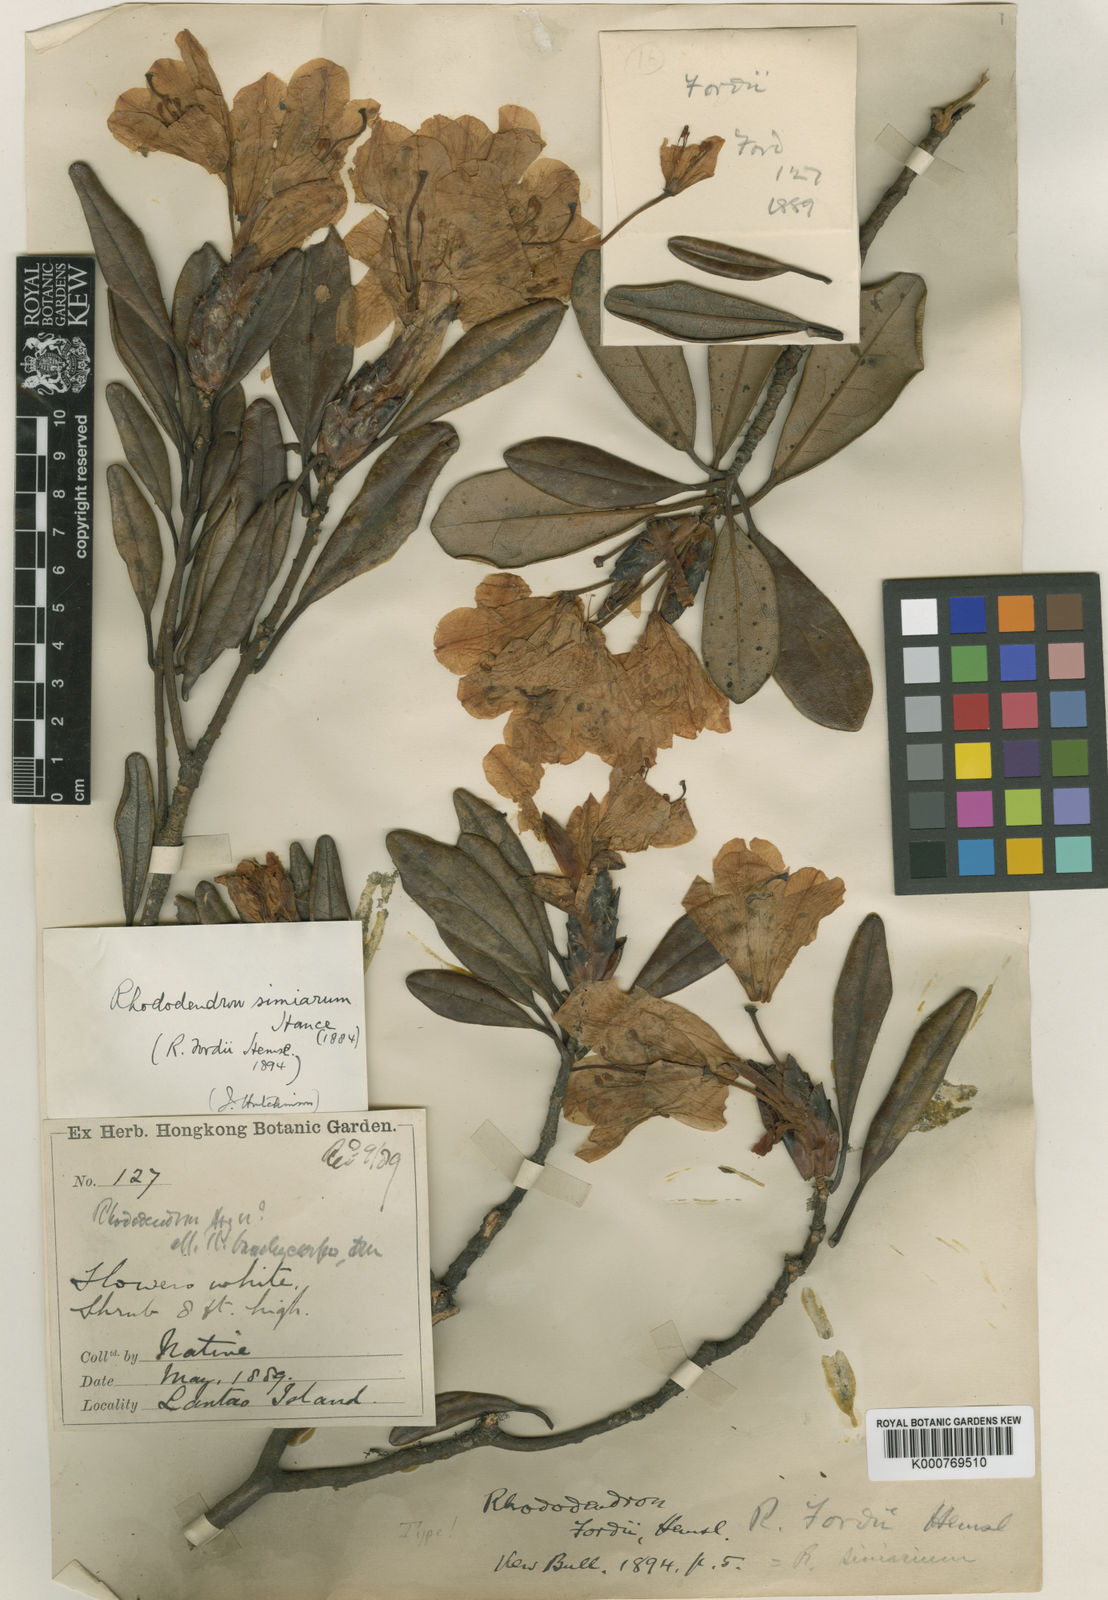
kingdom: Plantae
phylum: Tracheophyta
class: Magnoliopsida
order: Ericales
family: Ericaceae
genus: Rhododendron
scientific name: Rhododendron simiarum
